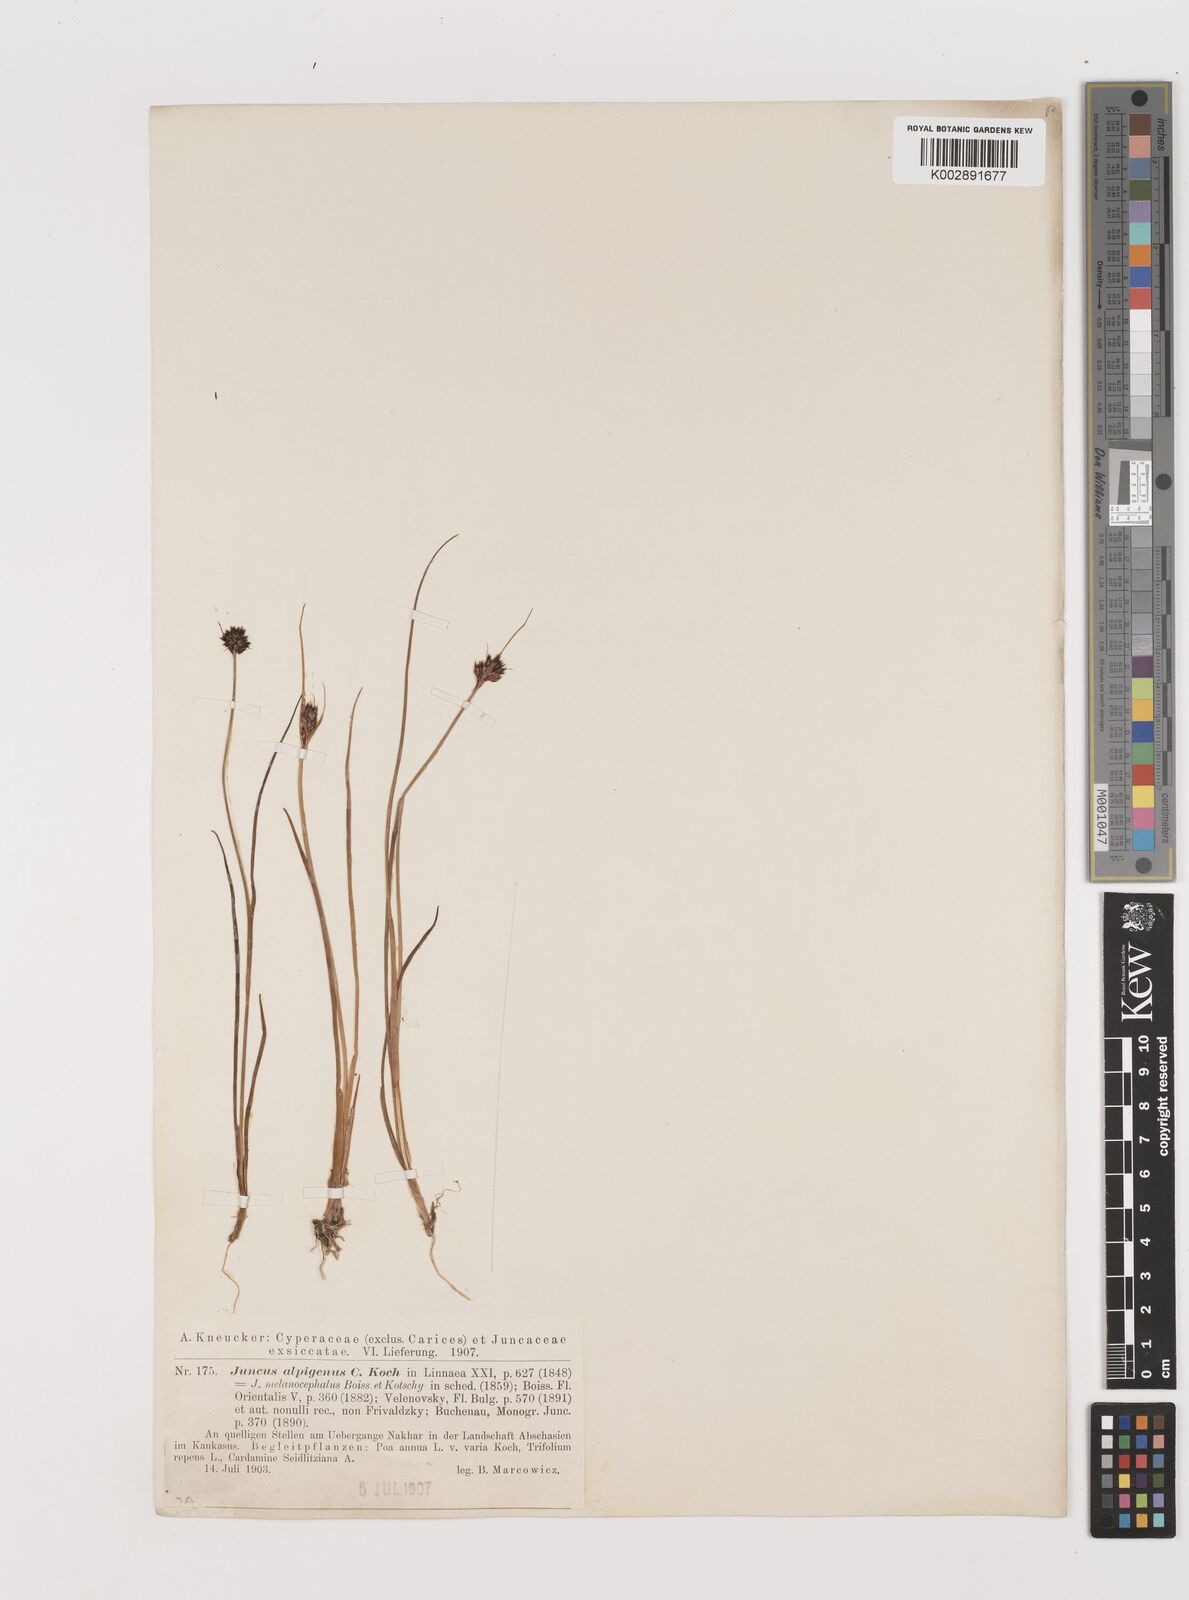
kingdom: Plantae
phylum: Tracheophyta
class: Liliopsida
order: Poales
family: Juncaceae
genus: Juncus
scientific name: Juncus alpigenus
